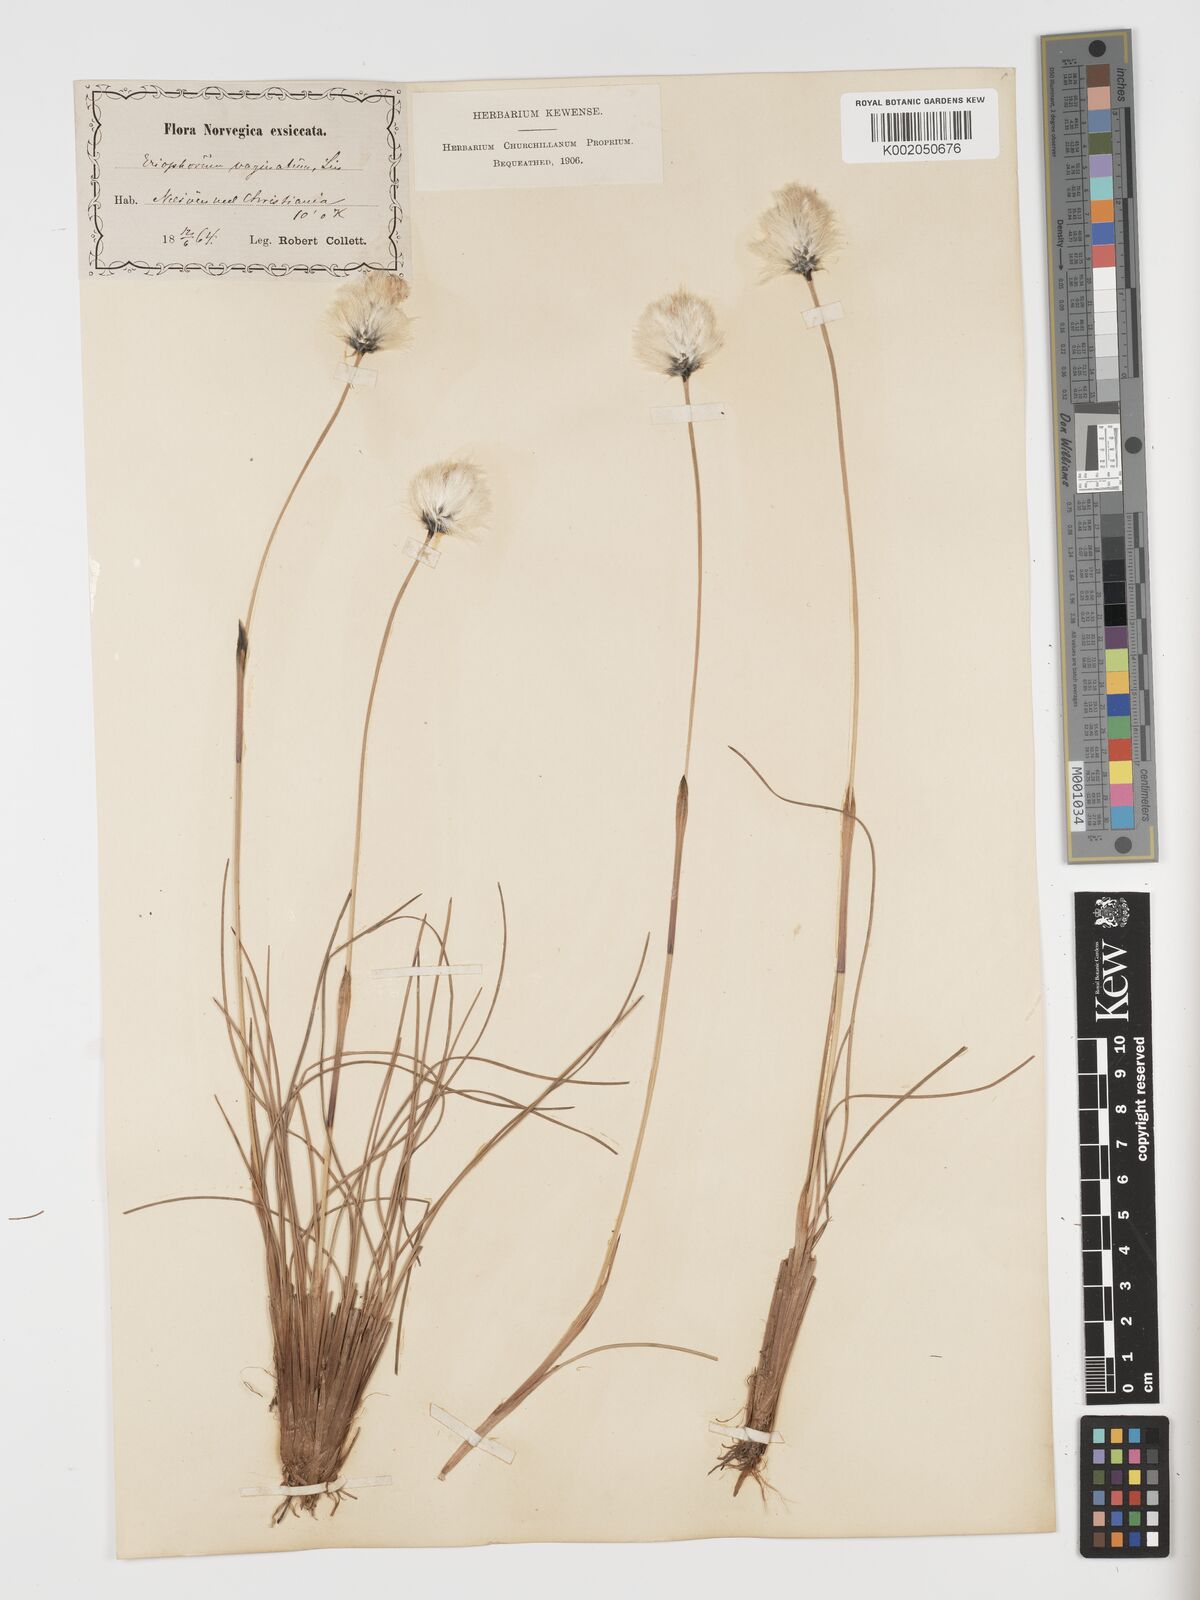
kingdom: Plantae
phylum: Tracheophyta
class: Liliopsida
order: Poales
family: Cyperaceae
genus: Eriophorum
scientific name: Eriophorum vaginatum
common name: Hare's-tail cottongrass
